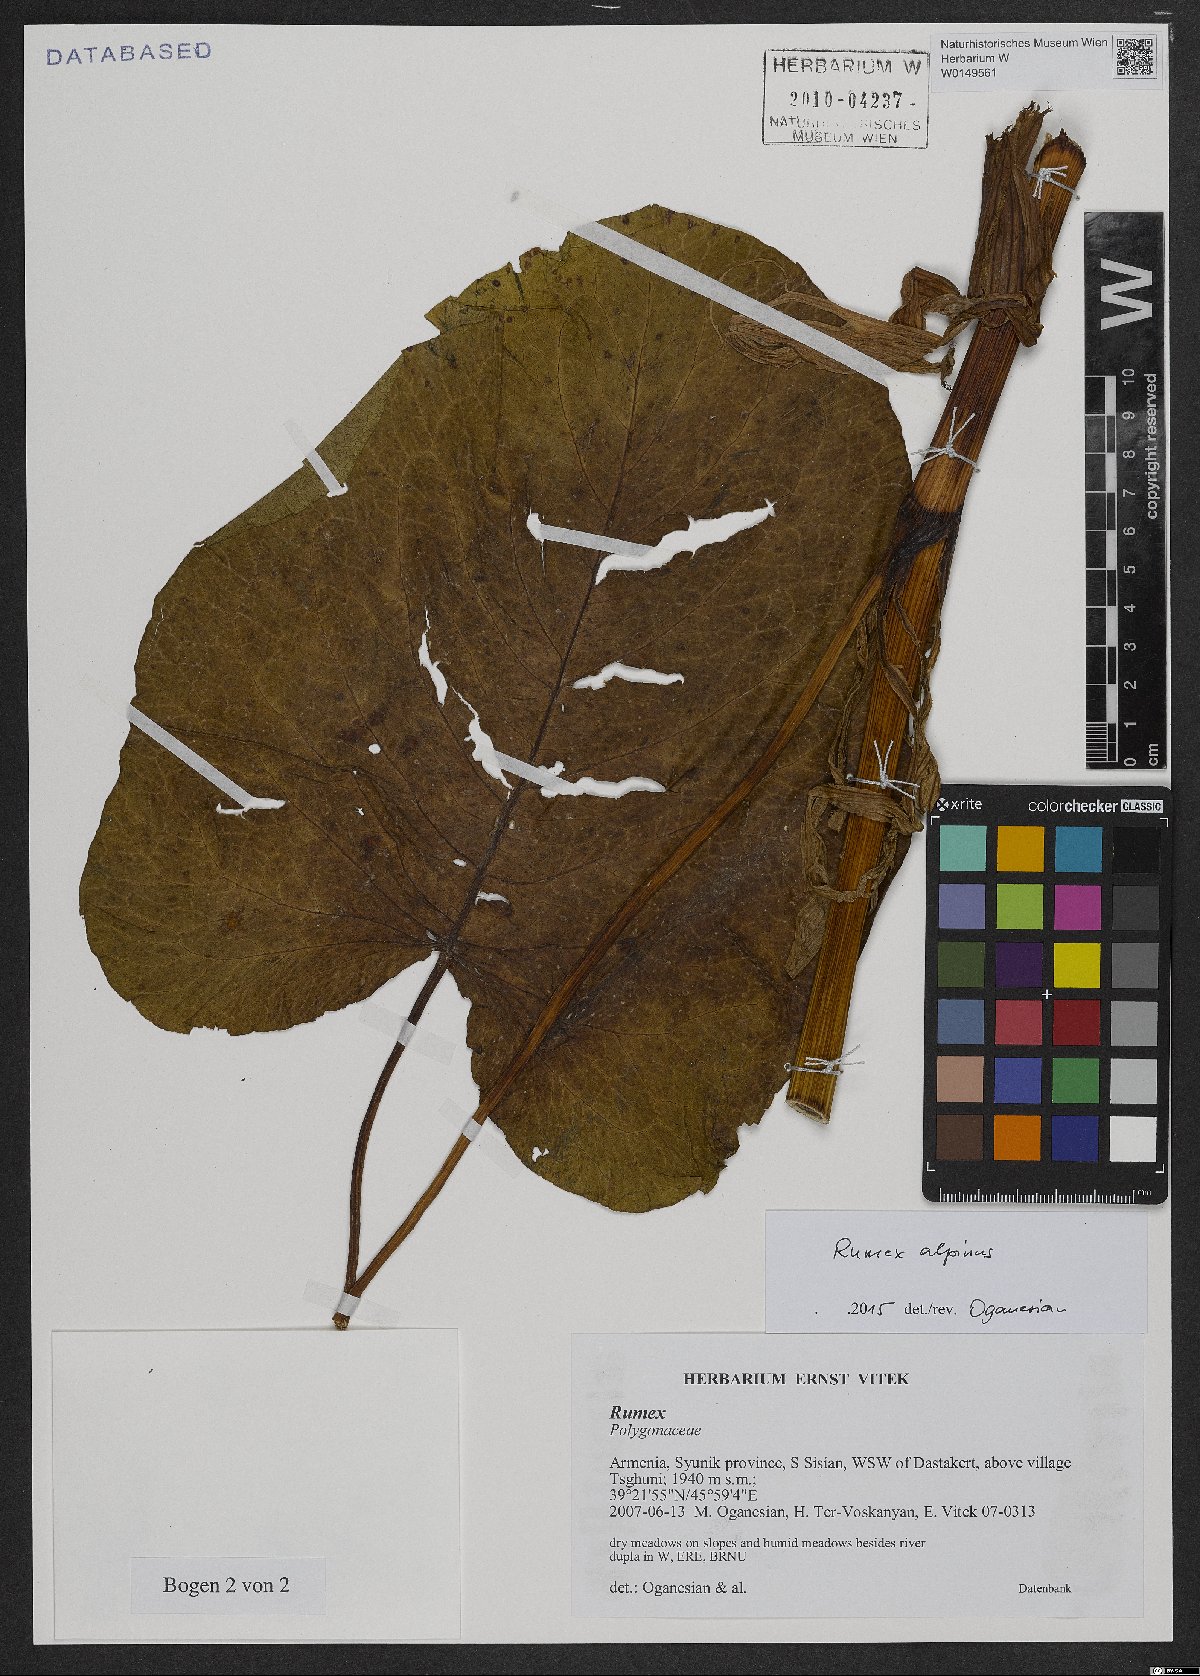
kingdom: Plantae
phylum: Tracheophyta
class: Magnoliopsida
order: Caryophyllales
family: Polygonaceae
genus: Rumex
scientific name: Rumex alpinus
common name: Alpine dock
